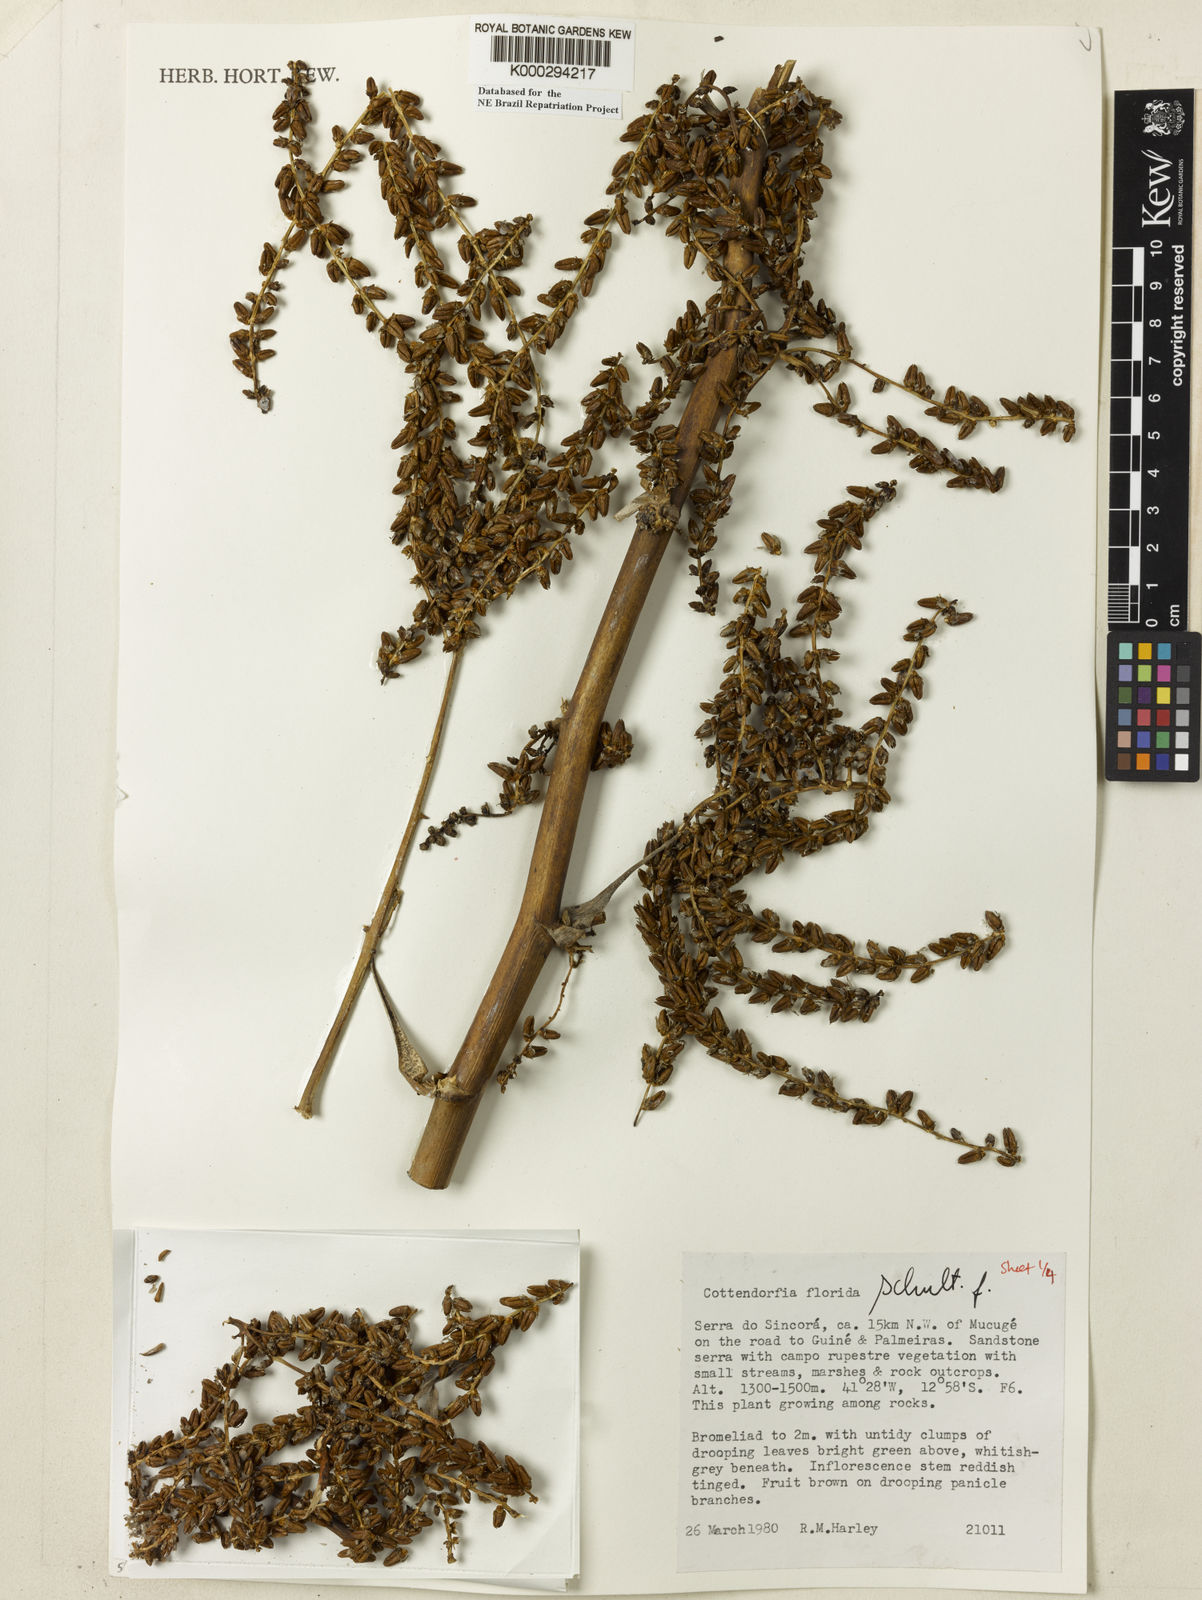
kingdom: Plantae
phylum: Tracheophyta
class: Liliopsida
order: Poales
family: Bromeliaceae
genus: Cottendorfia
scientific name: Cottendorfia florida
